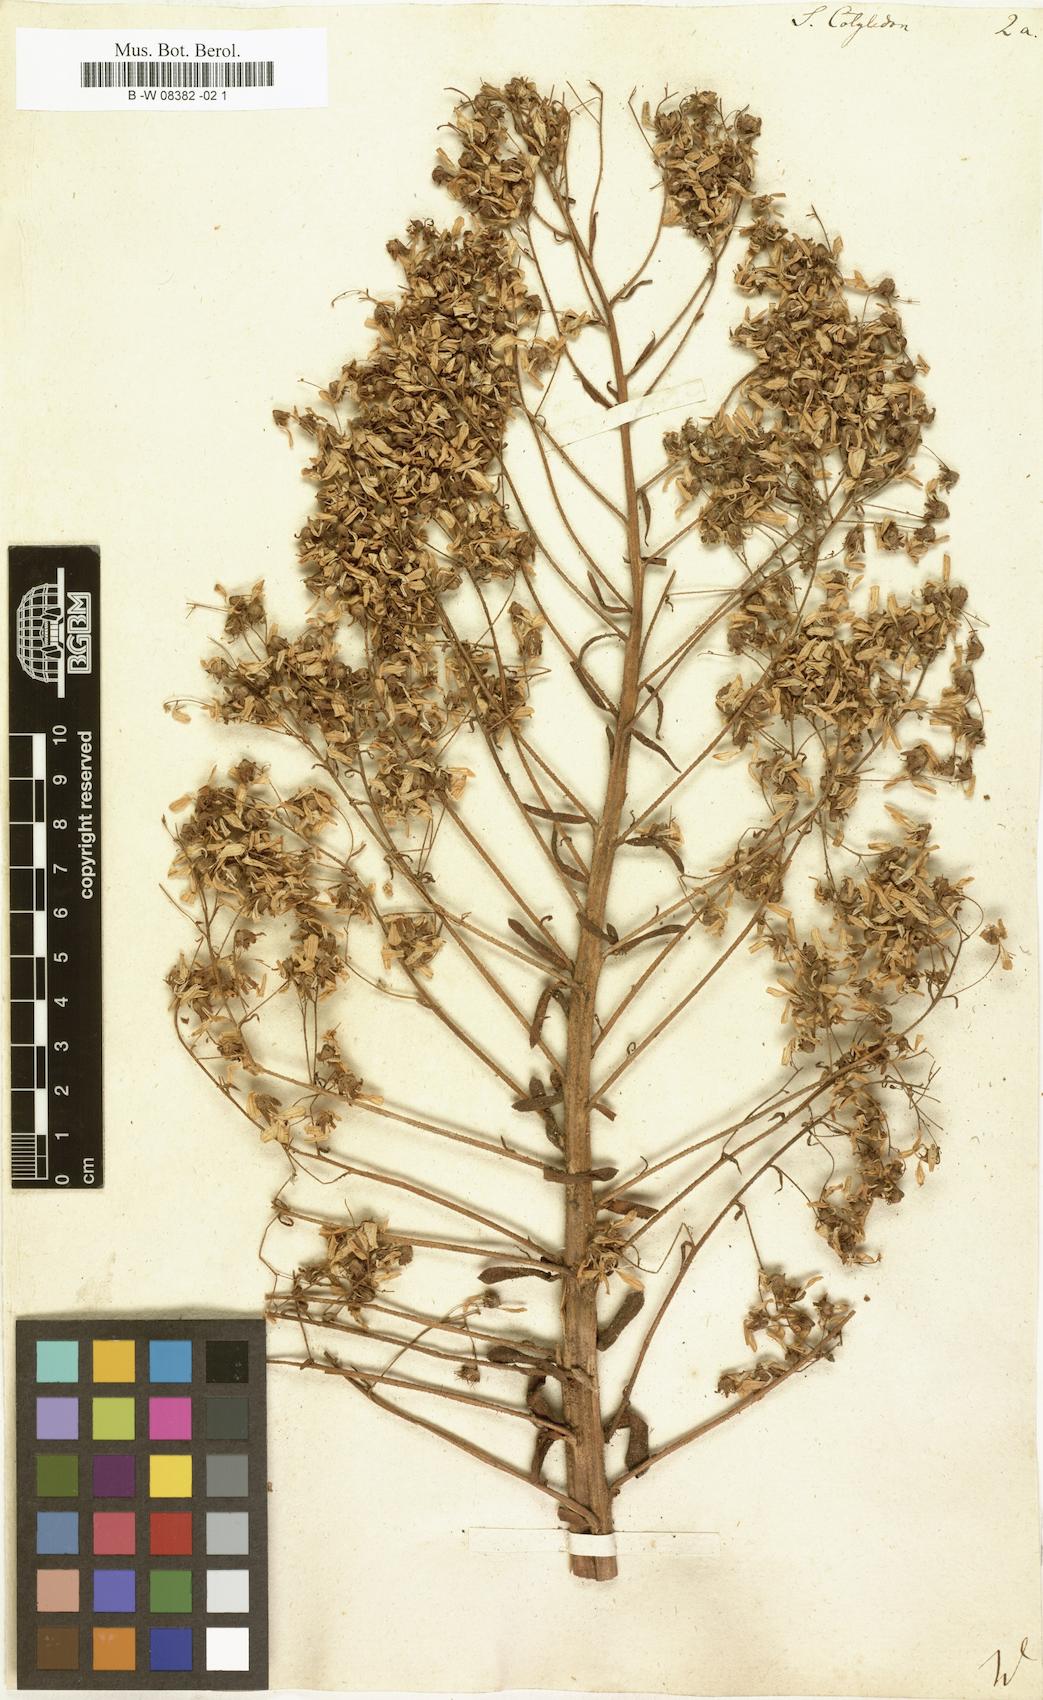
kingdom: Plantae
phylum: Tracheophyta
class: Magnoliopsida
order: Saxifragales
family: Saxifragaceae
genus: Saxifraga
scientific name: Saxifraga cotyledon
